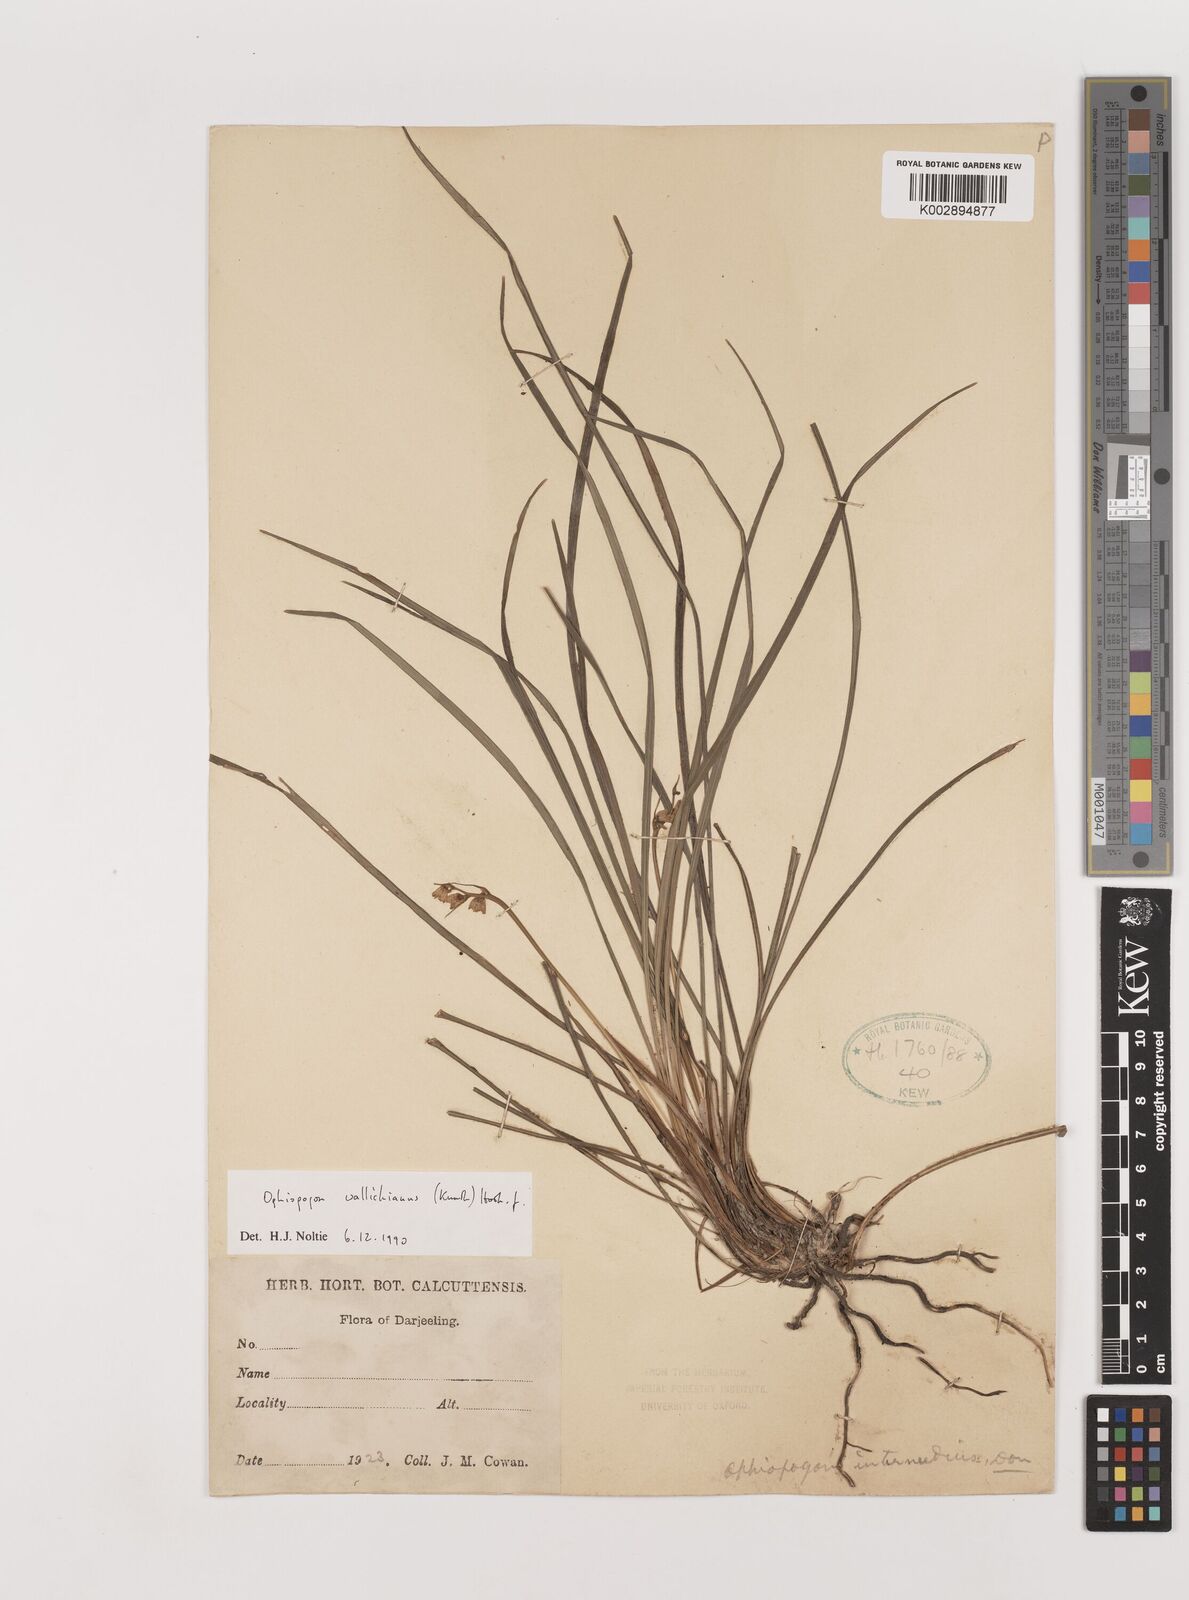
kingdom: Plantae
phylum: Tracheophyta
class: Liliopsida
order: Asparagales
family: Asparagaceae
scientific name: Asparagaceae
